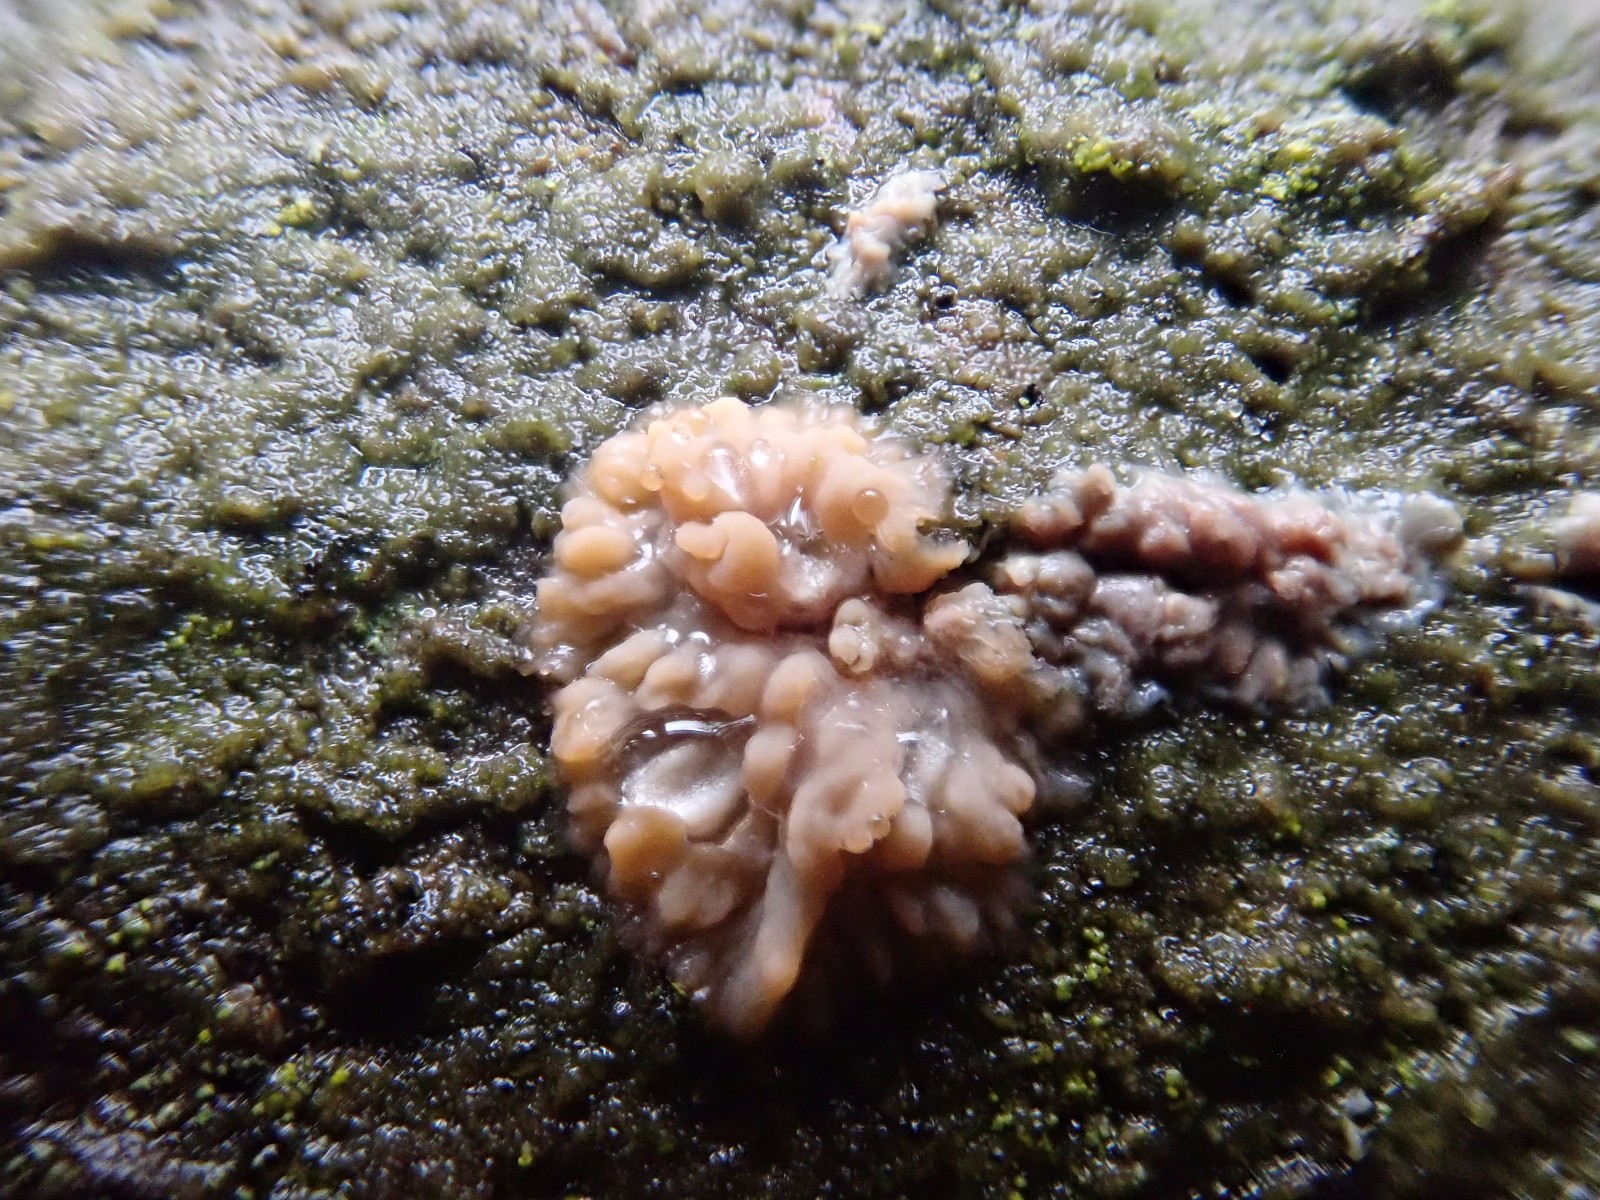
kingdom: Fungi
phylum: Basidiomycota
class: Agaricomycetes
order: Polyporales
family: Meruliaceae
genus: Phlebia
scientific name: Phlebia radiata
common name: stråle-åresvamp
